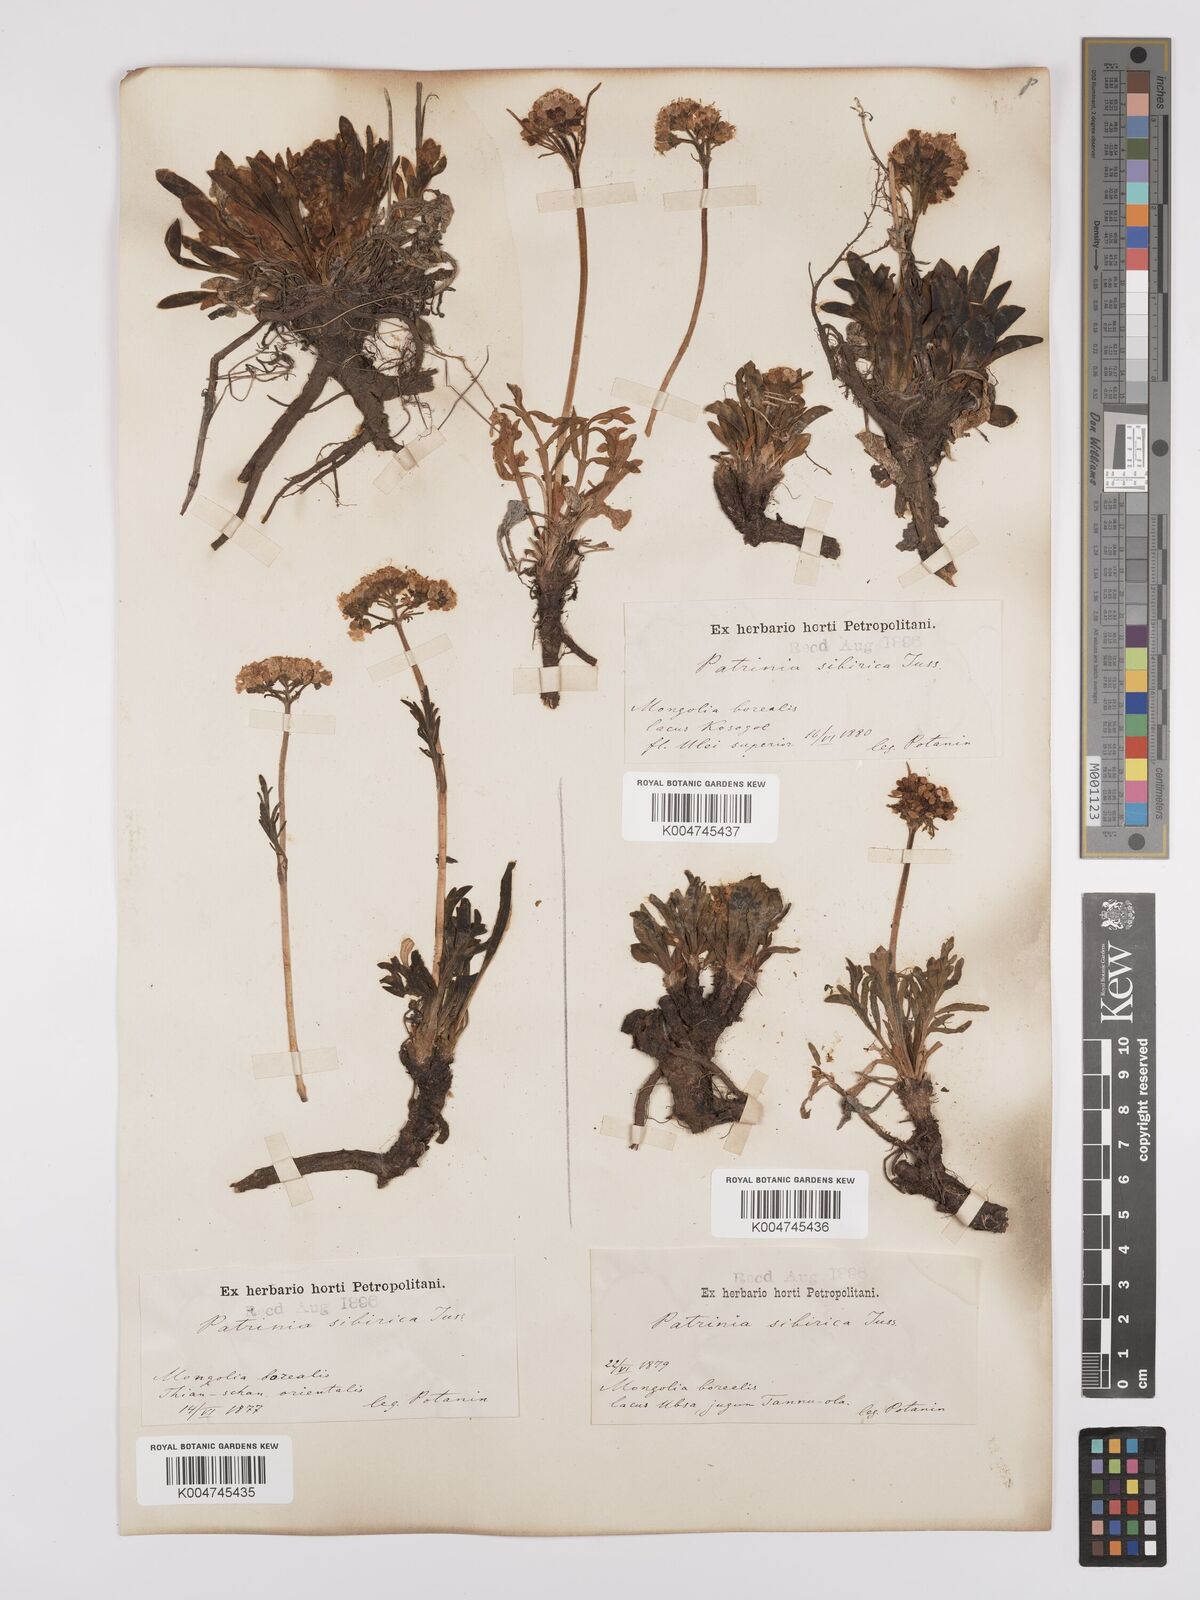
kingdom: Plantae
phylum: Tracheophyta
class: Magnoliopsida
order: Dipsacales
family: Caprifoliaceae
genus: Patrinia
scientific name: Patrinia sibirica
